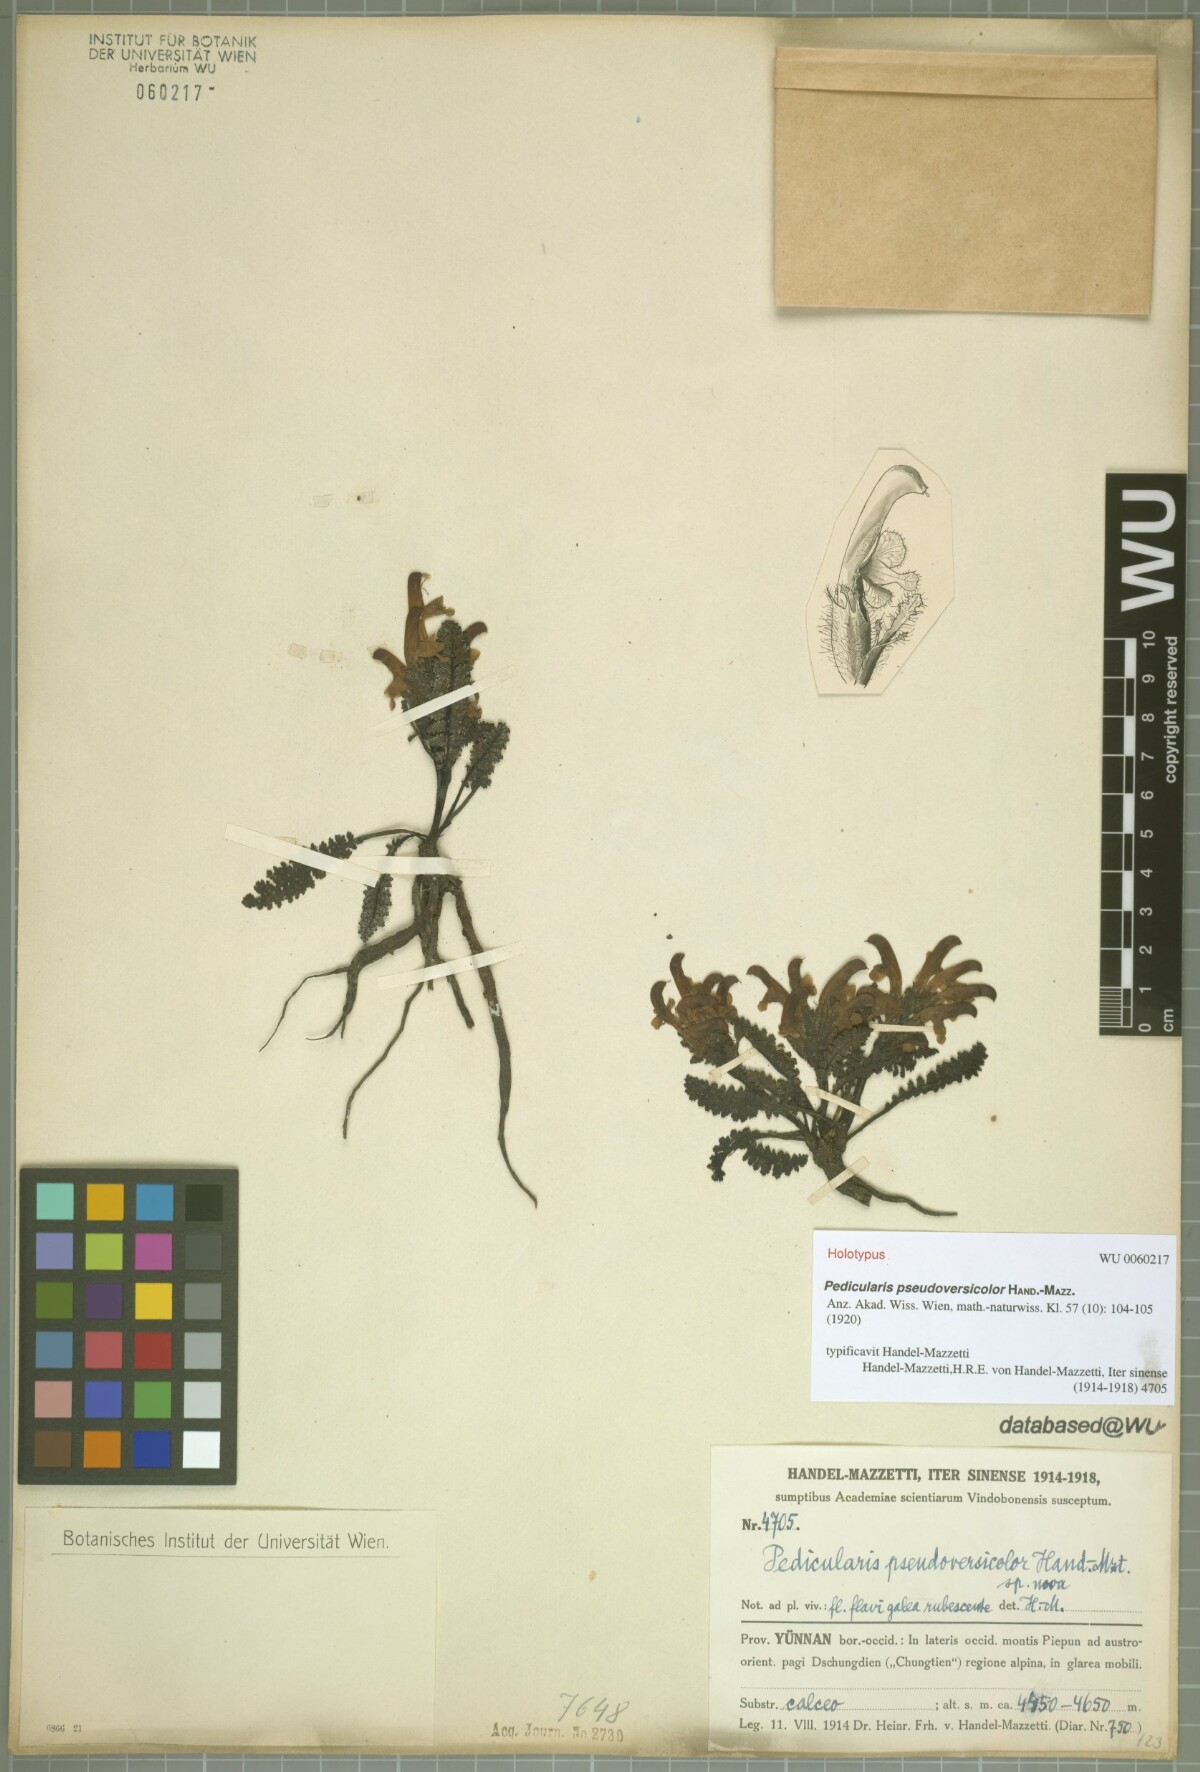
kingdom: Plantae
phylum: Tracheophyta
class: Magnoliopsida
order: Lamiales
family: Orobanchaceae
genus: Pedicularis
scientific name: Pedicularis pseudoversicolor
